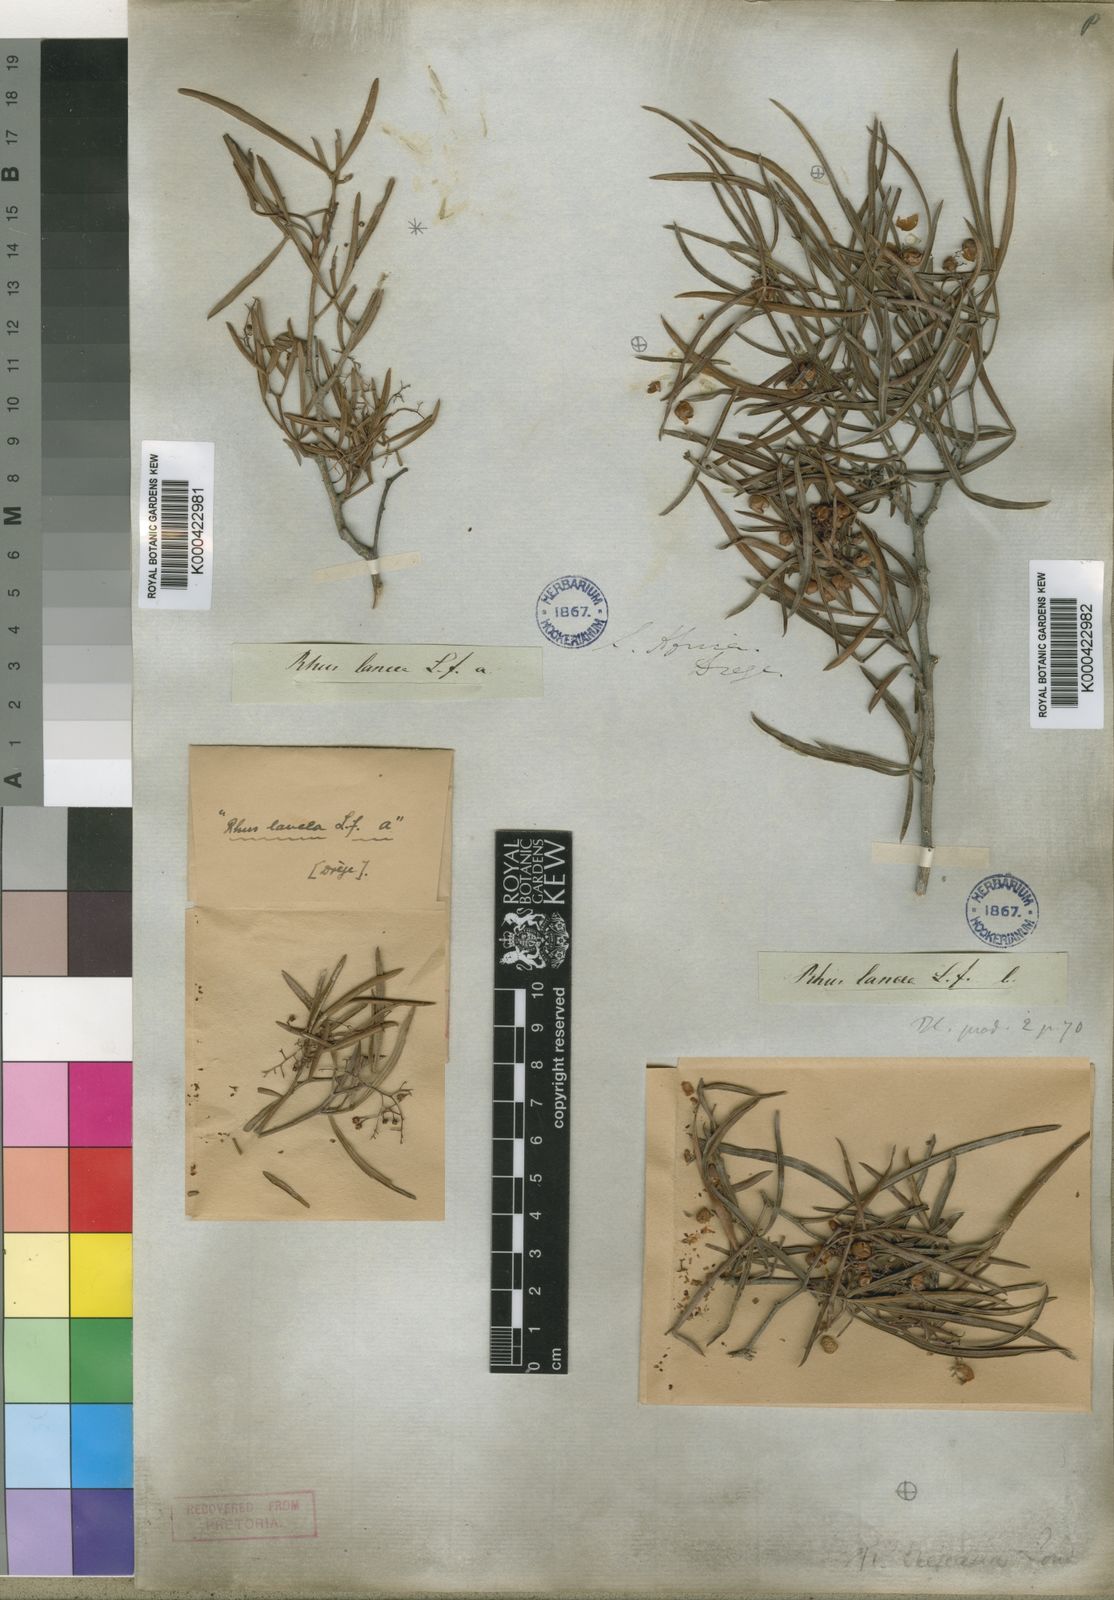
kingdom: Plantae
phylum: Tracheophyta
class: Magnoliopsida
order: Sapindales
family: Anacardiaceae
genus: Searsia
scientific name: Searsia dregeana
